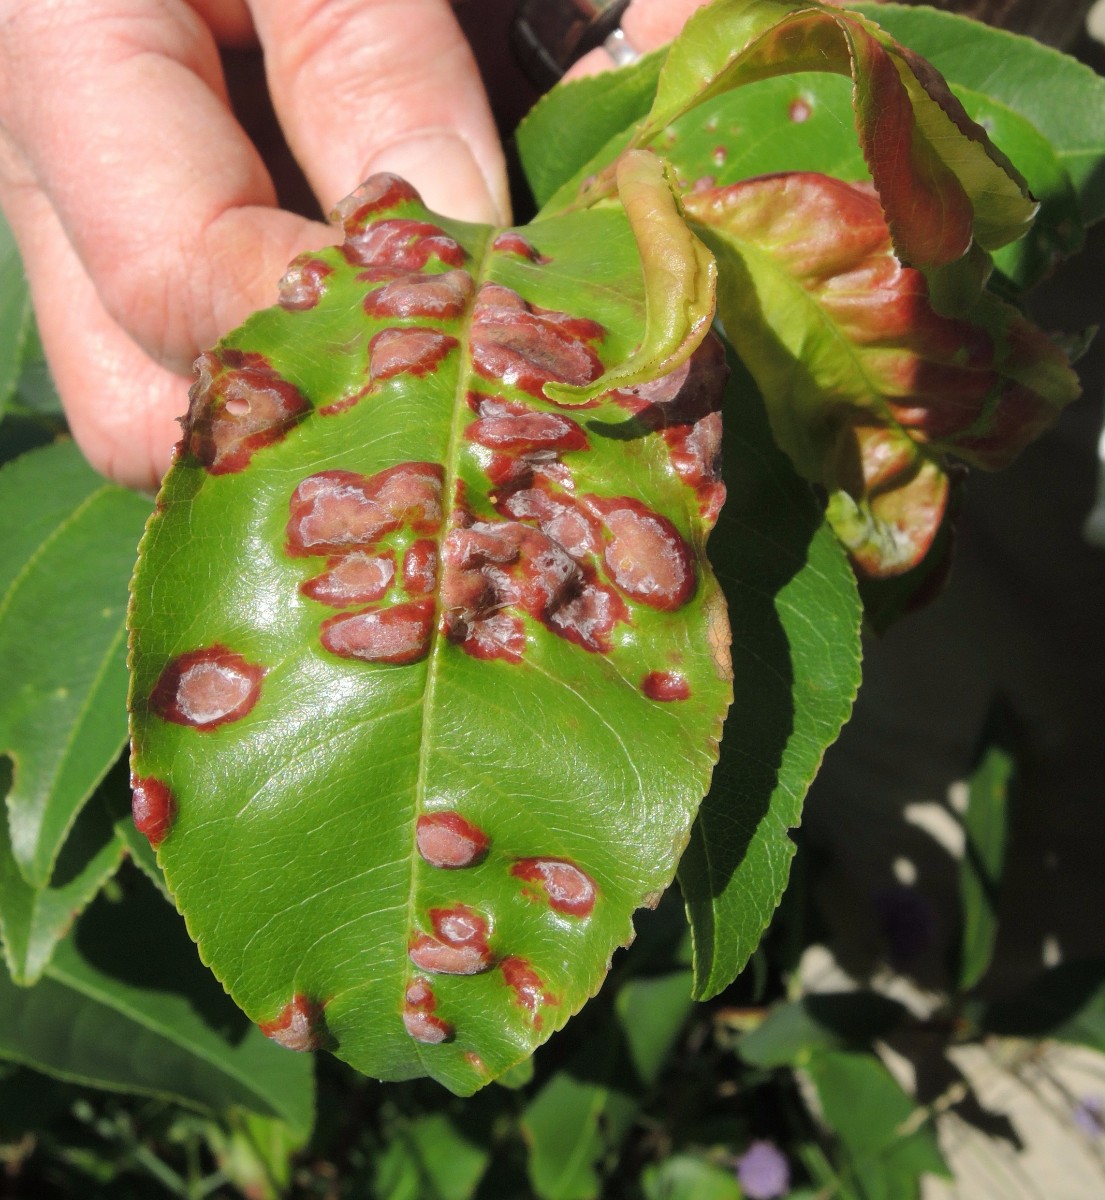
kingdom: Fungi
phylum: Ascomycota
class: Taphrinomycetes
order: Taphrinales
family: Taphrinaceae
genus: Taphrina
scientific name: Taphrina farlowii
